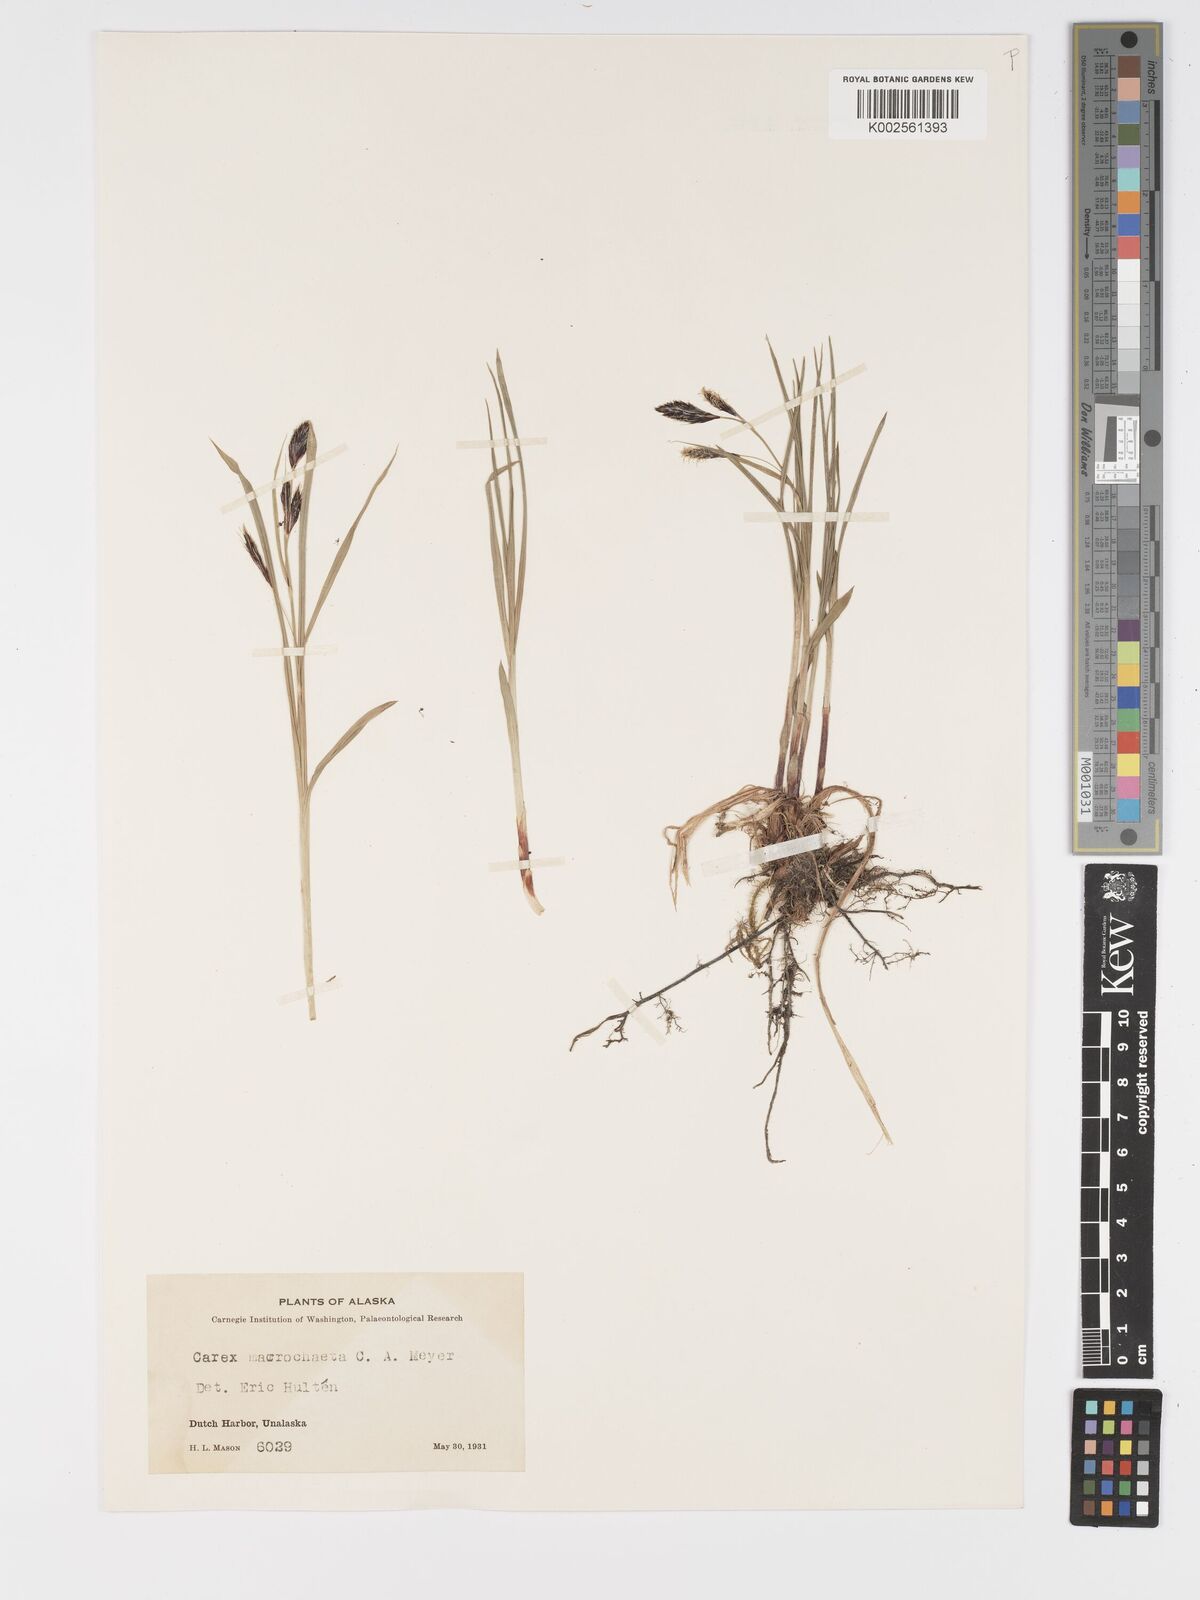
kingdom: Plantae
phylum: Tracheophyta
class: Liliopsida
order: Poales
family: Cyperaceae
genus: Carex
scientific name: Carex macrochaeta
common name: Alaska large awn sedge
